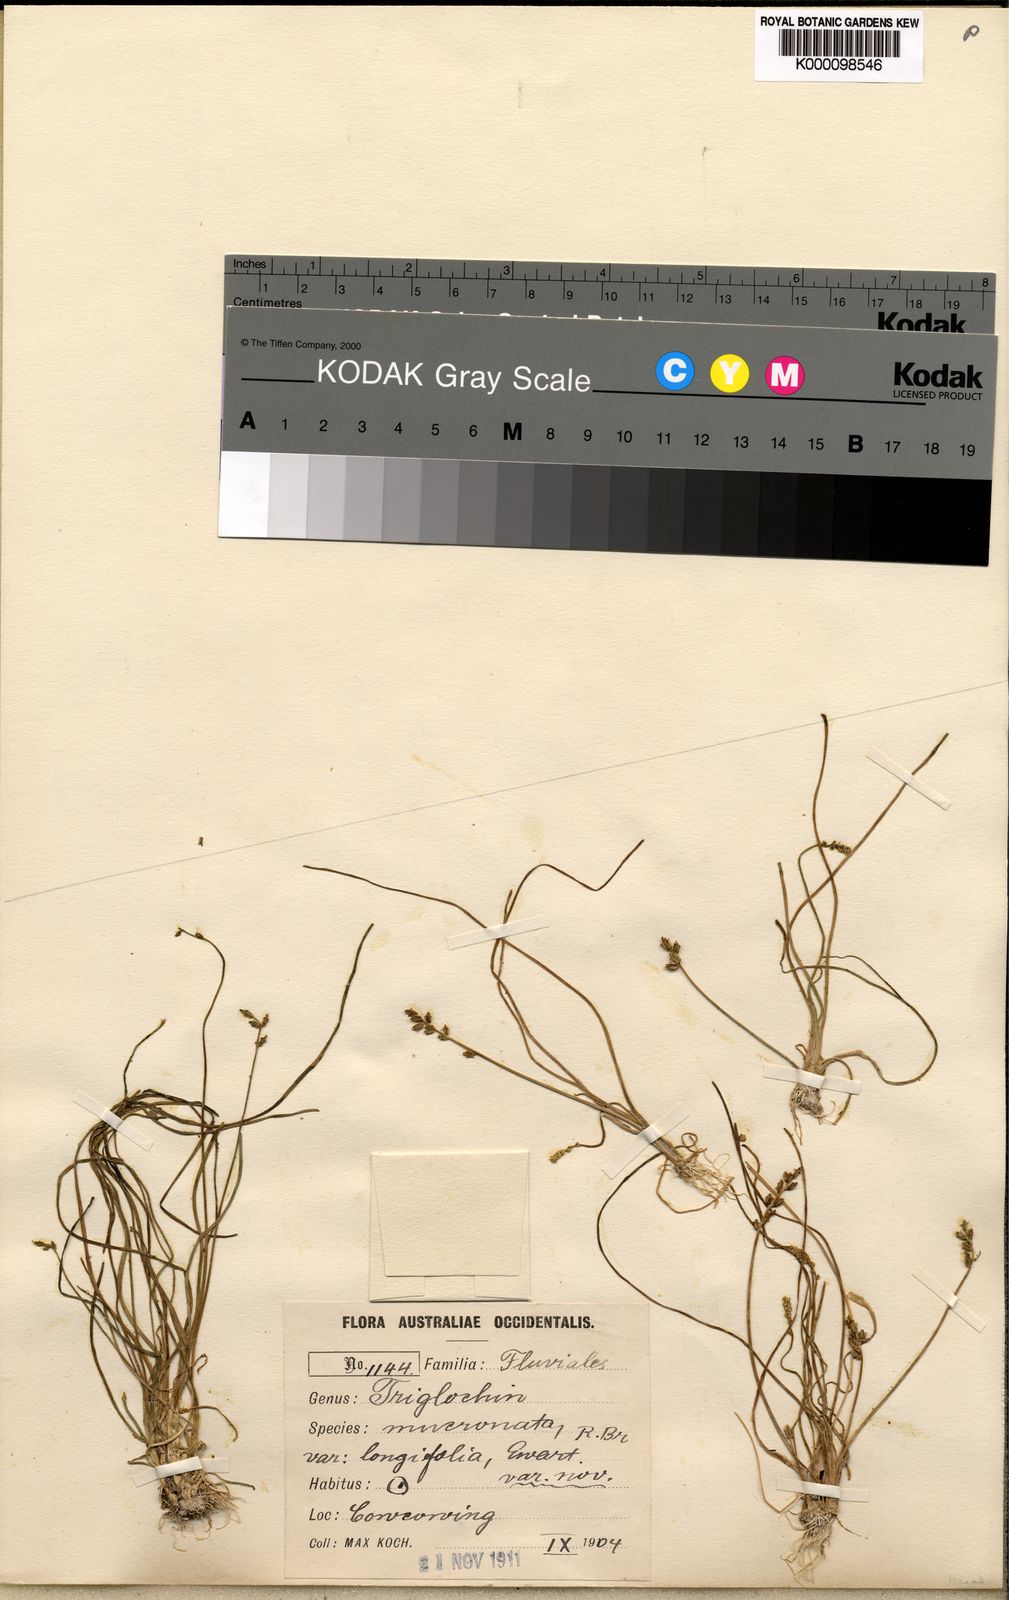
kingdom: Plantae
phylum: Tracheophyta
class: Liliopsida
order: Alismatales
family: Juncaginaceae
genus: Triglochin
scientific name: Triglochin mucronata
